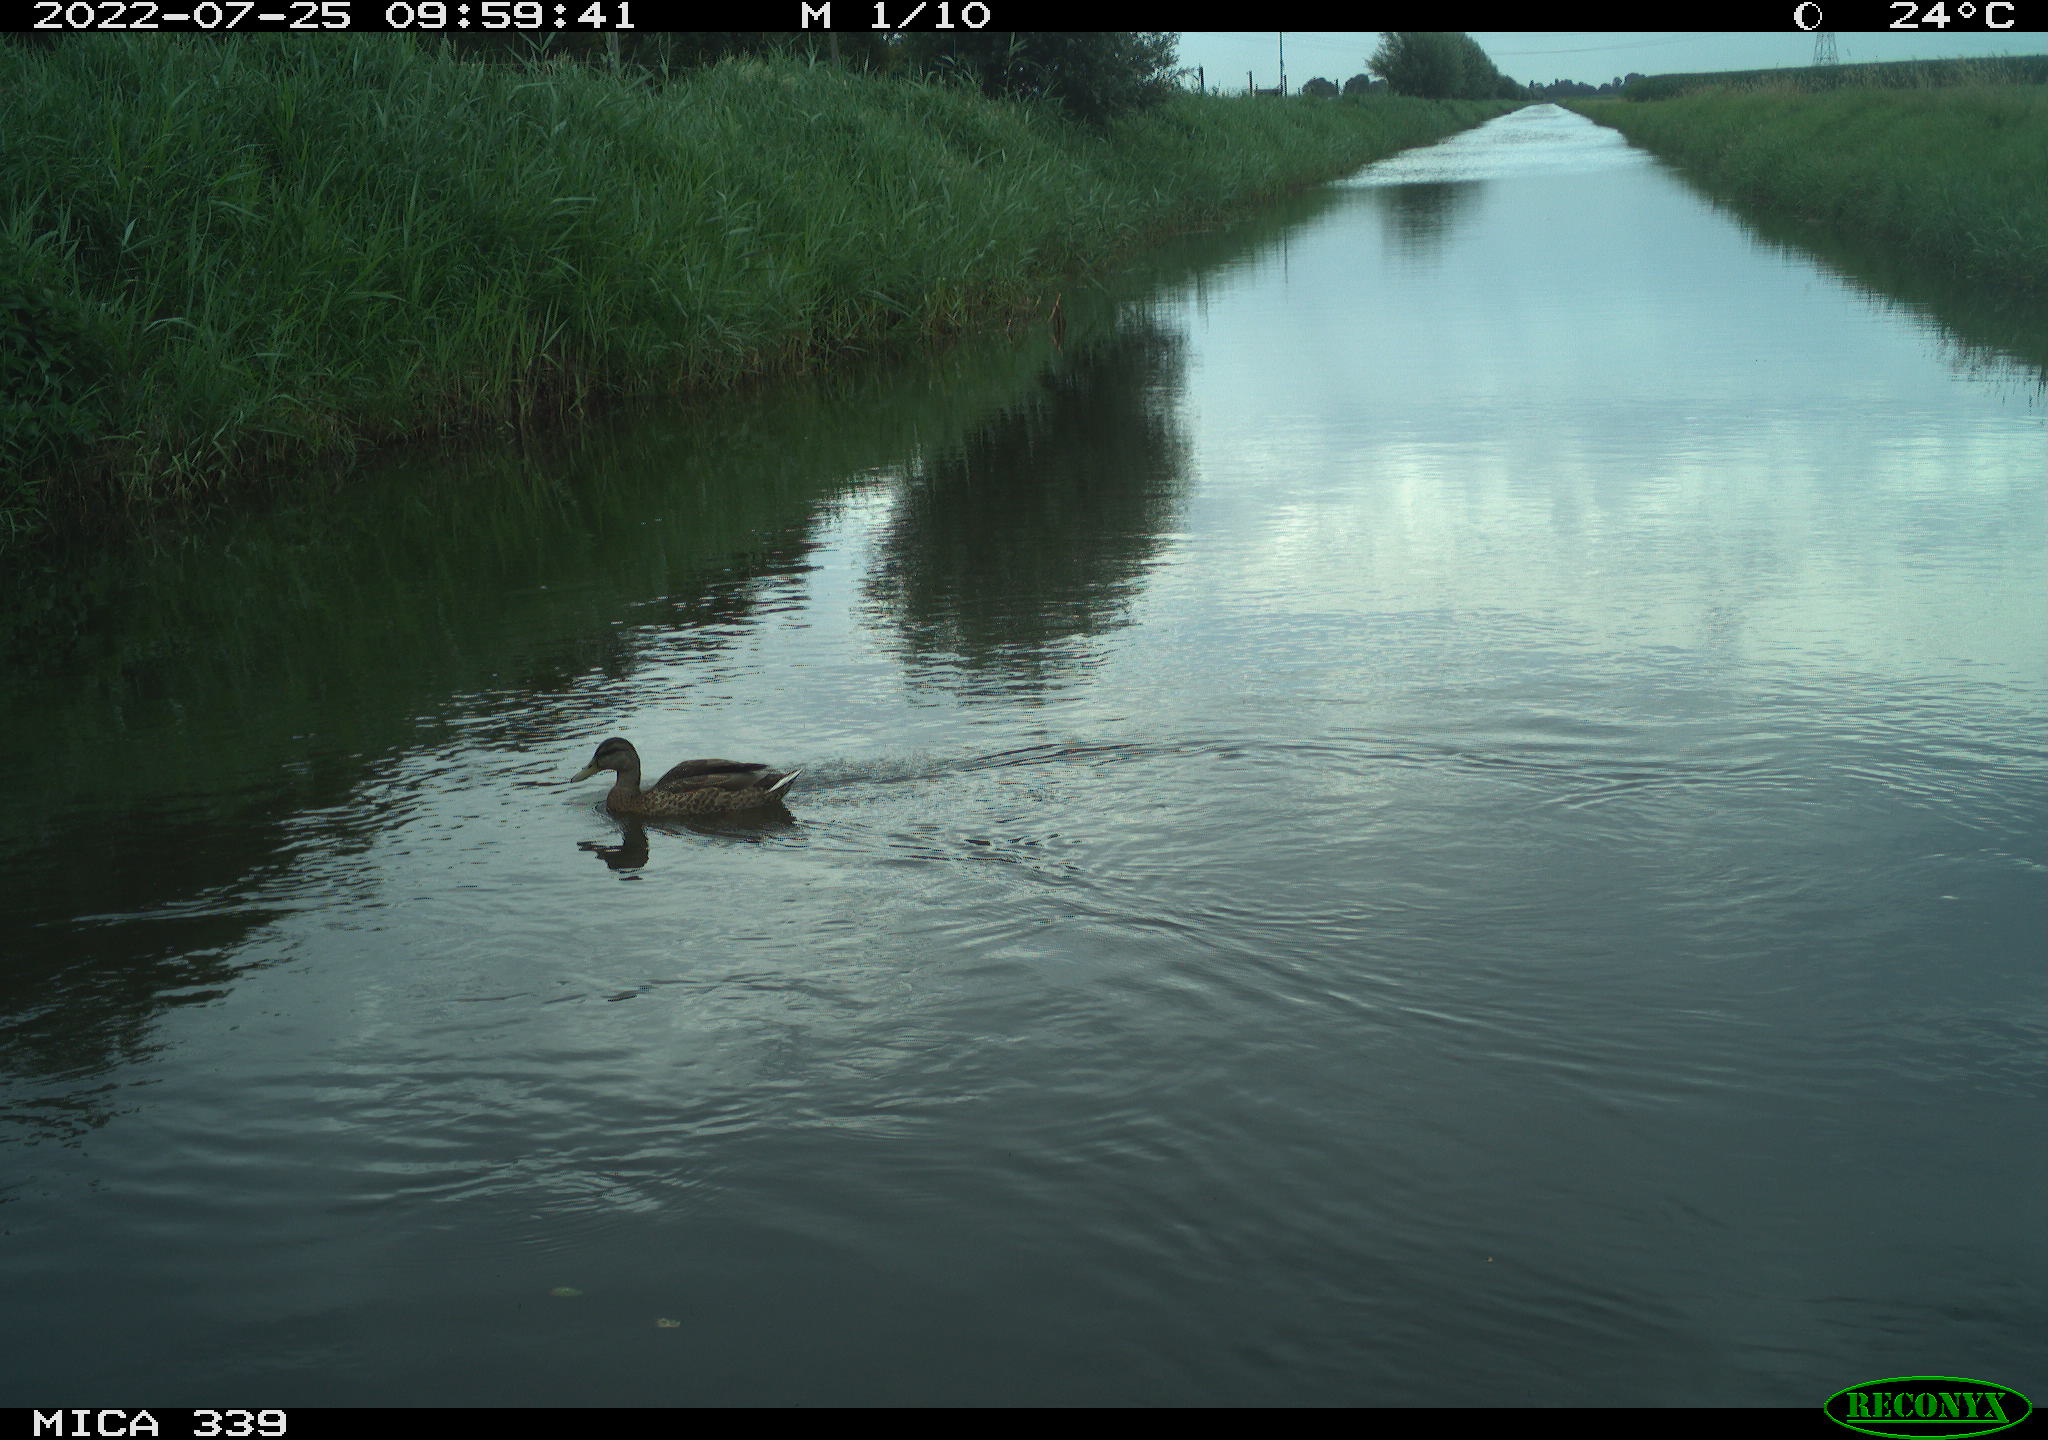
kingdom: Animalia
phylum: Chordata
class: Aves
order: Anseriformes
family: Anatidae
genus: Anas
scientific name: Anas platyrhynchos
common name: Mallard
